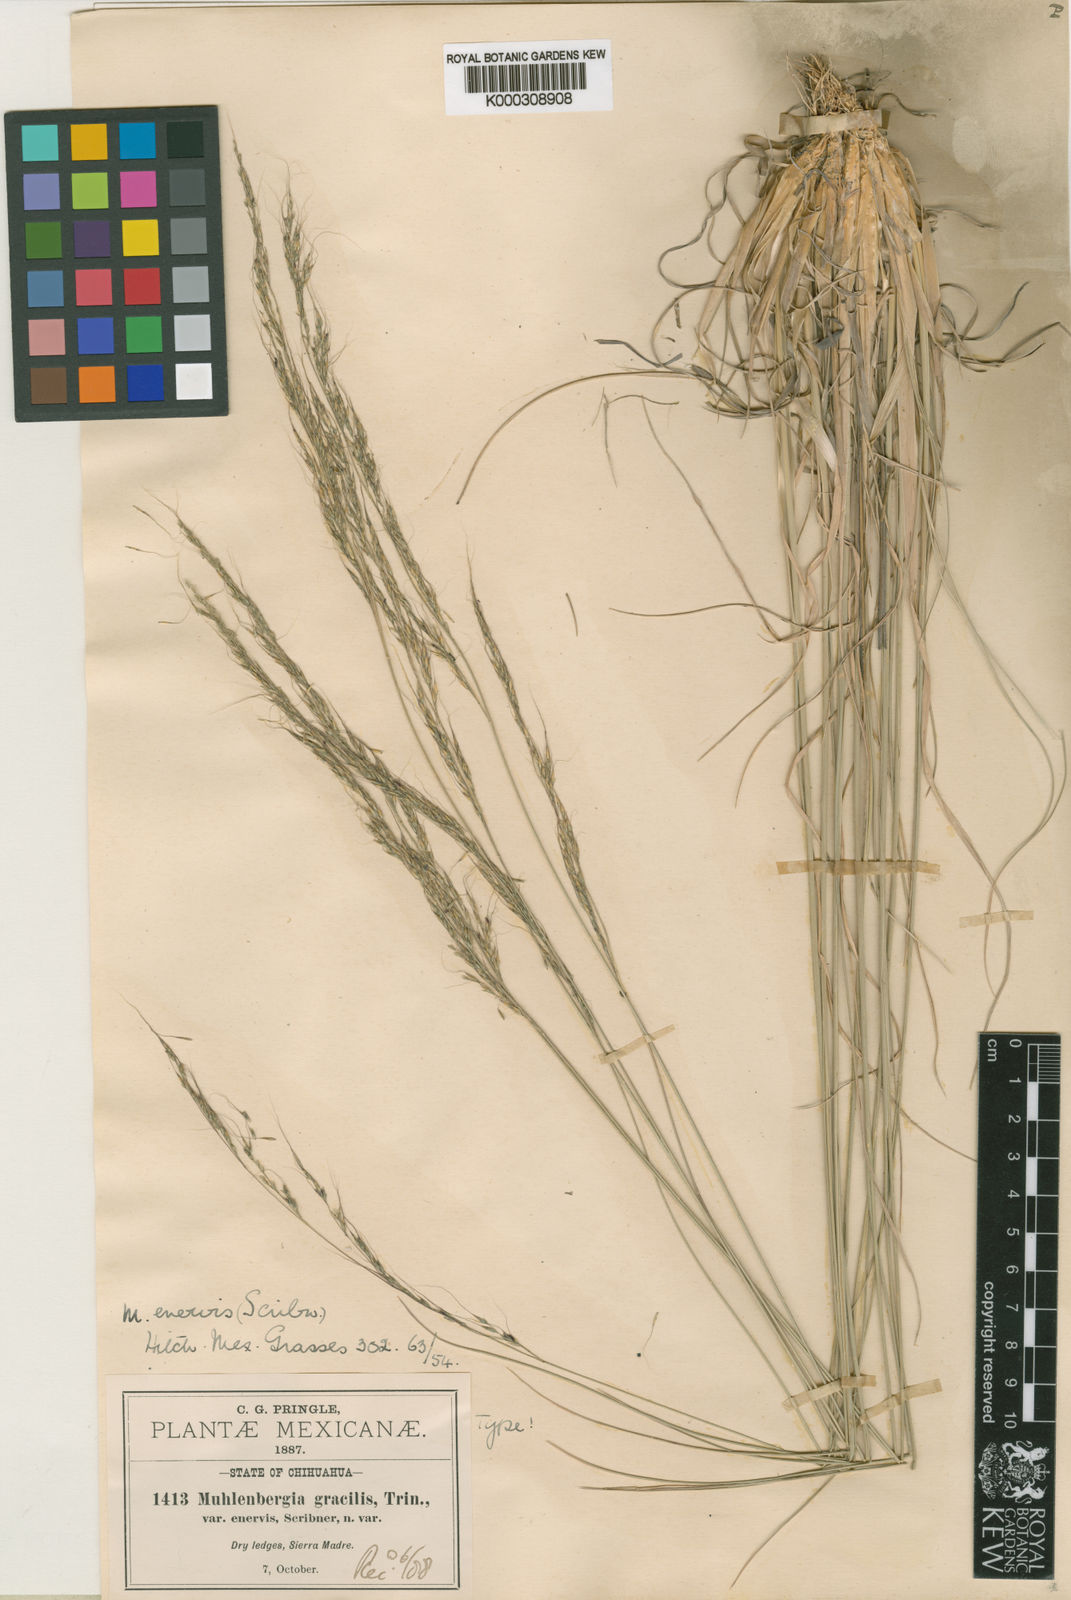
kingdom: Plantae
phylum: Tracheophyta
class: Liliopsida
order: Poales
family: Poaceae
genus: Muhlenbergia
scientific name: Muhlenbergia montana
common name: Mountain muhly
